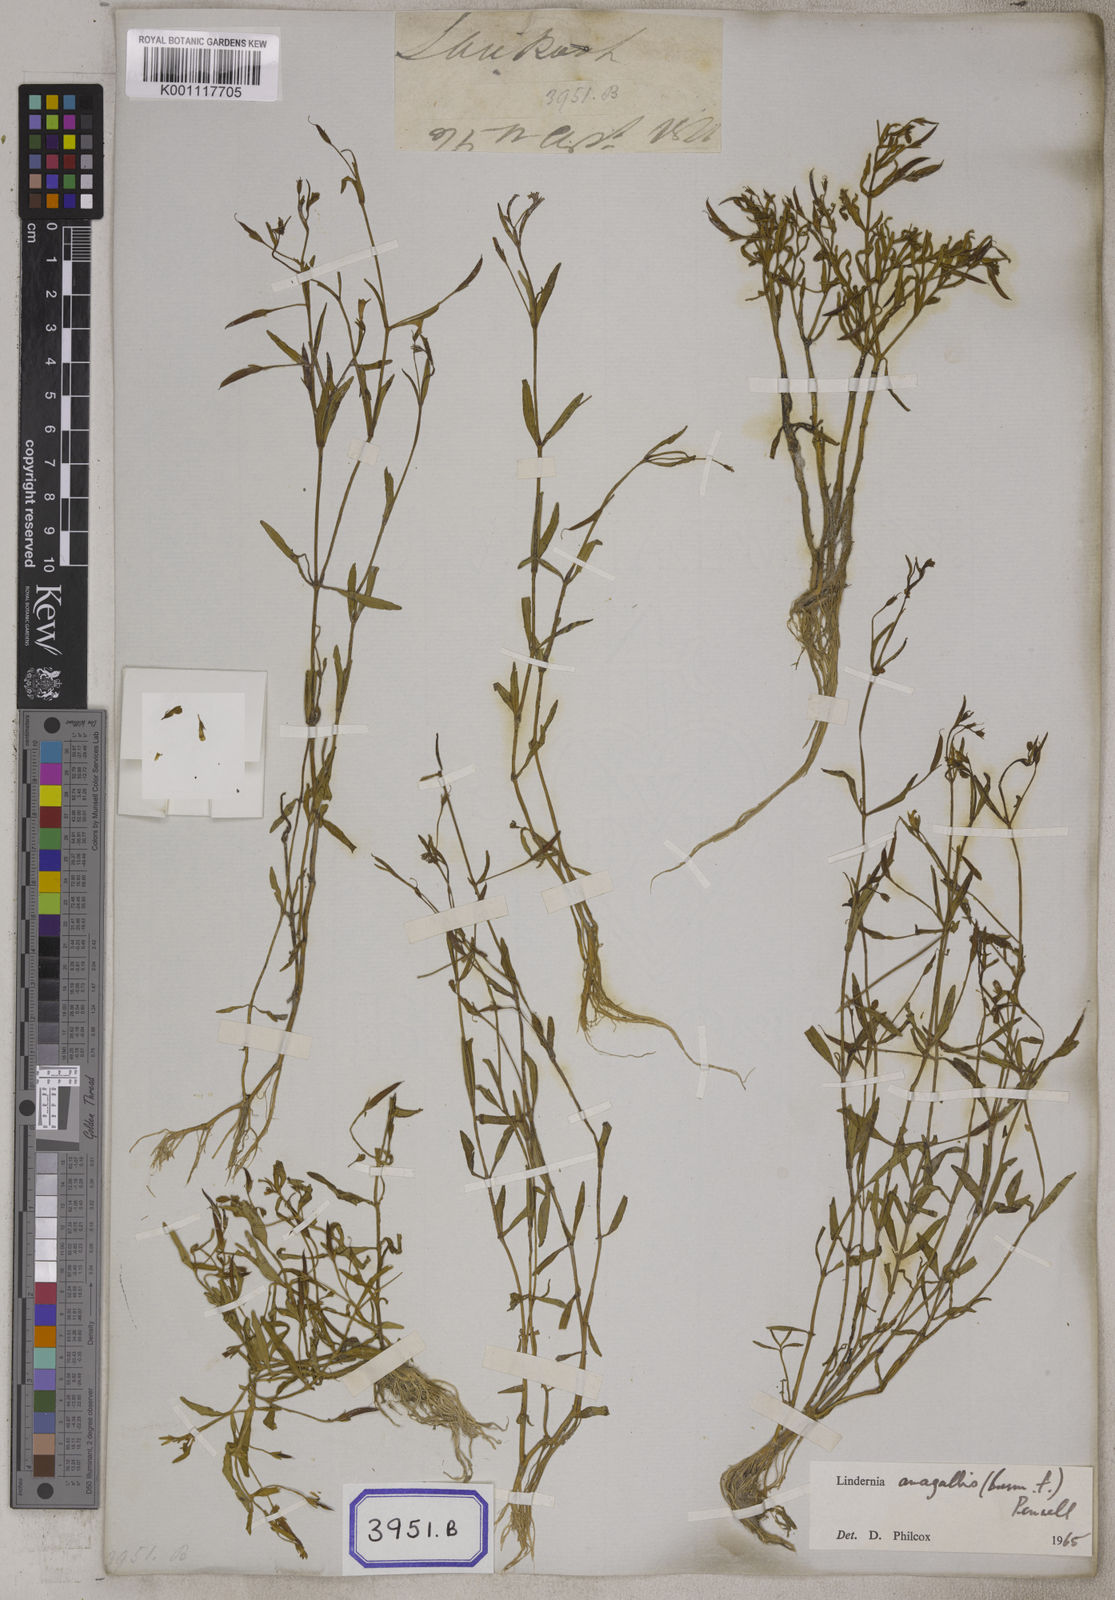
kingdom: Plantae
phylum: Tracheophyta
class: Magnoliopsida
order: Lamiales
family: Linderniaceae
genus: Vandellia
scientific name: Vandellia micrantha
